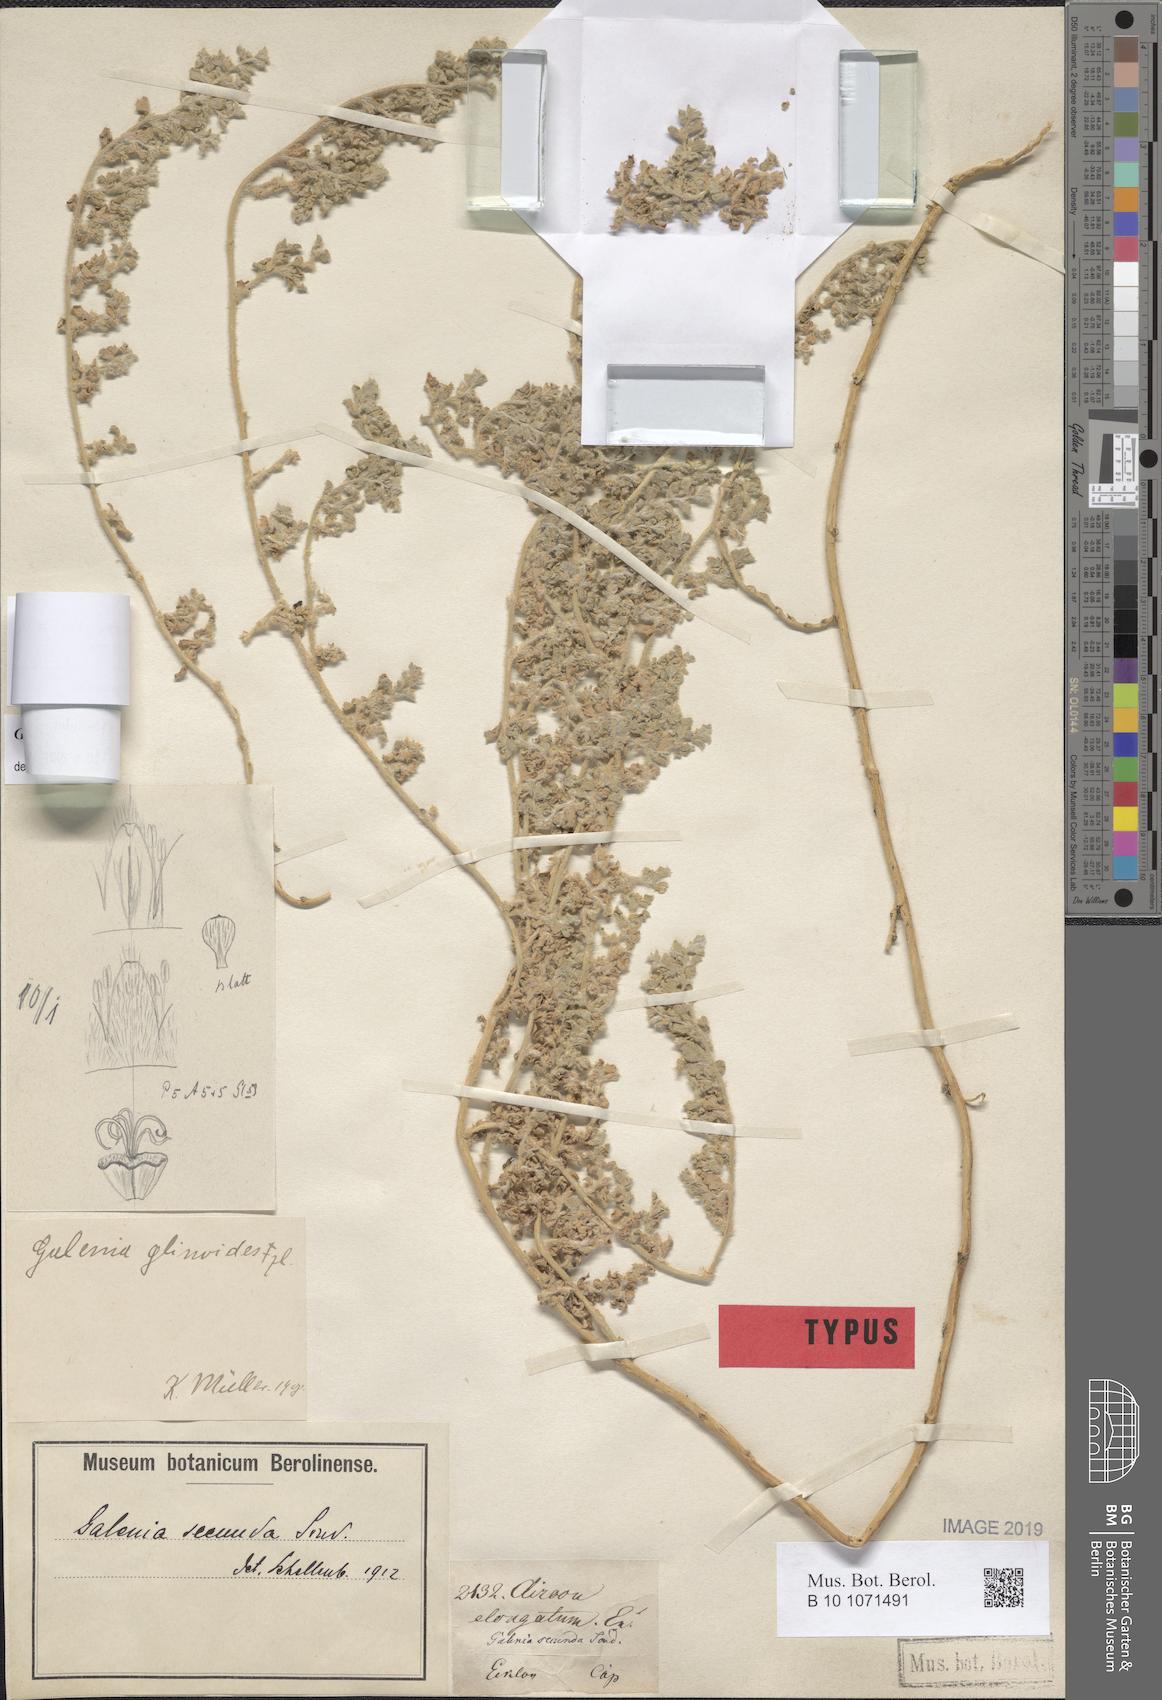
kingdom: Plantae
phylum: Tracheophyta
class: Magnoliopsida
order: Caryophyllales
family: Aizoaceae
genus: Aizoon
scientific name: Aizoon secundum
